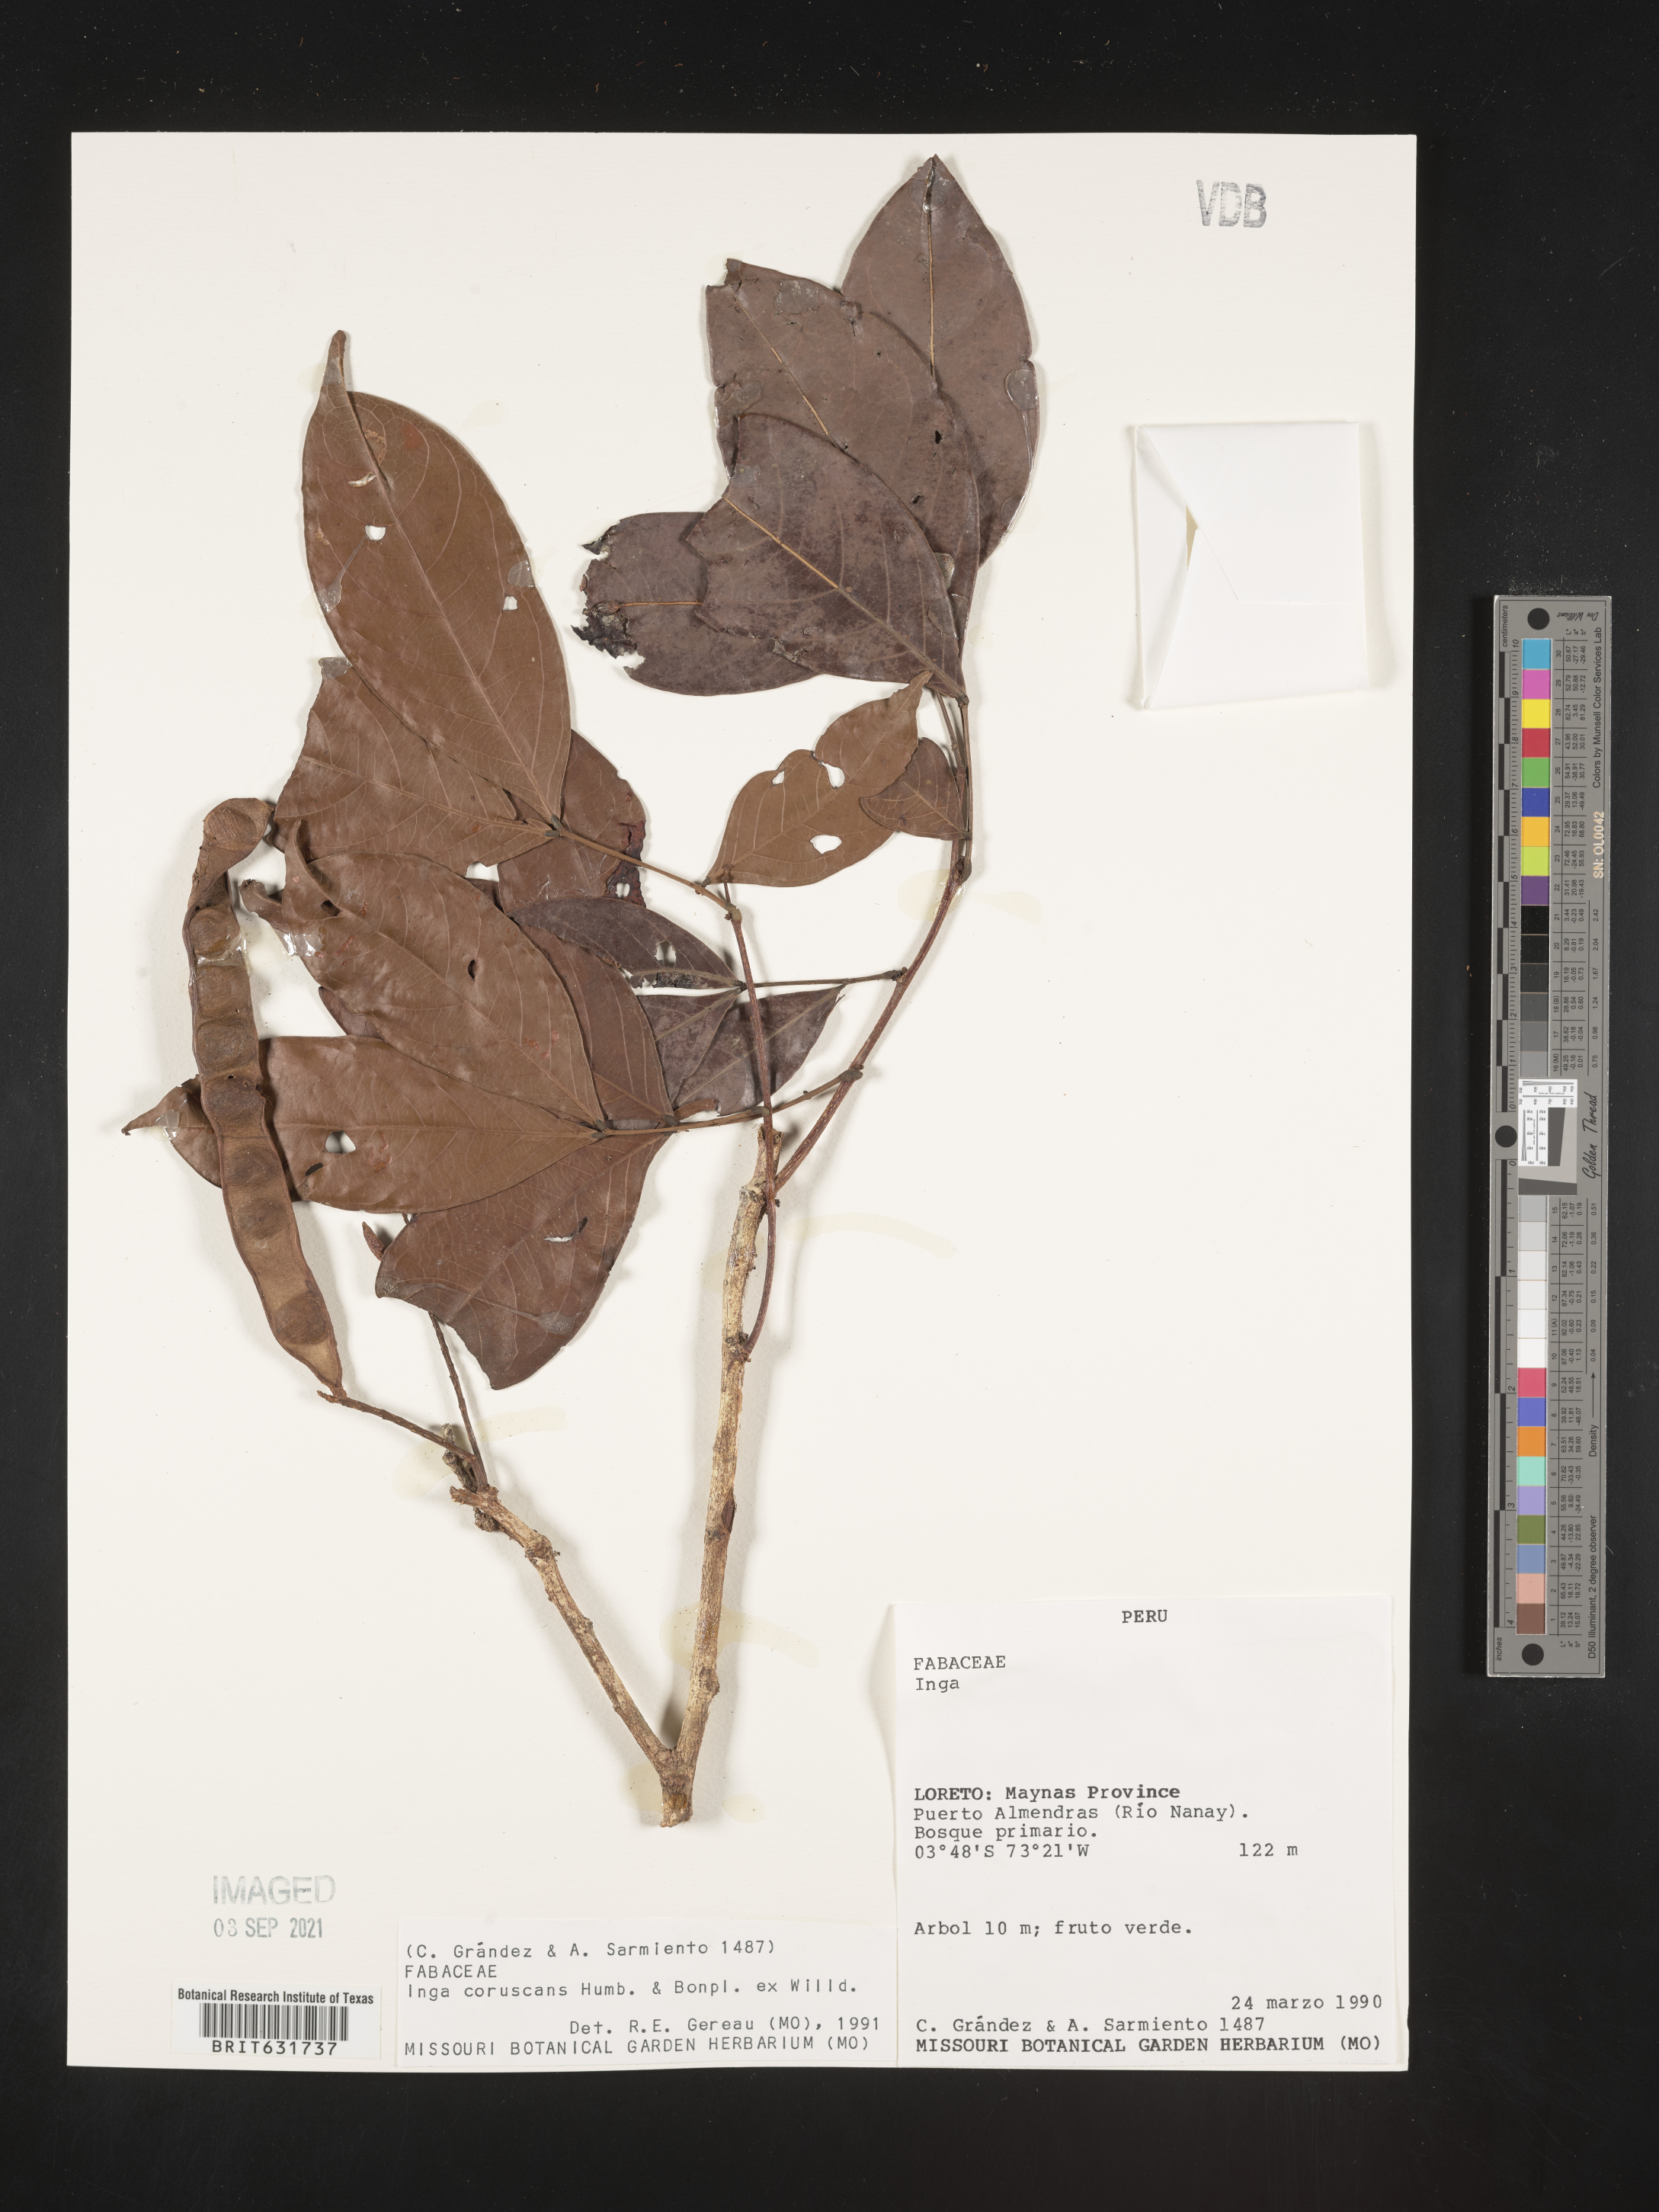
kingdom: Plantae
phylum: Tracheophyta
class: Magnoliopsida
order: Fabales
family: Fabaceae
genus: Inga
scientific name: Inga
